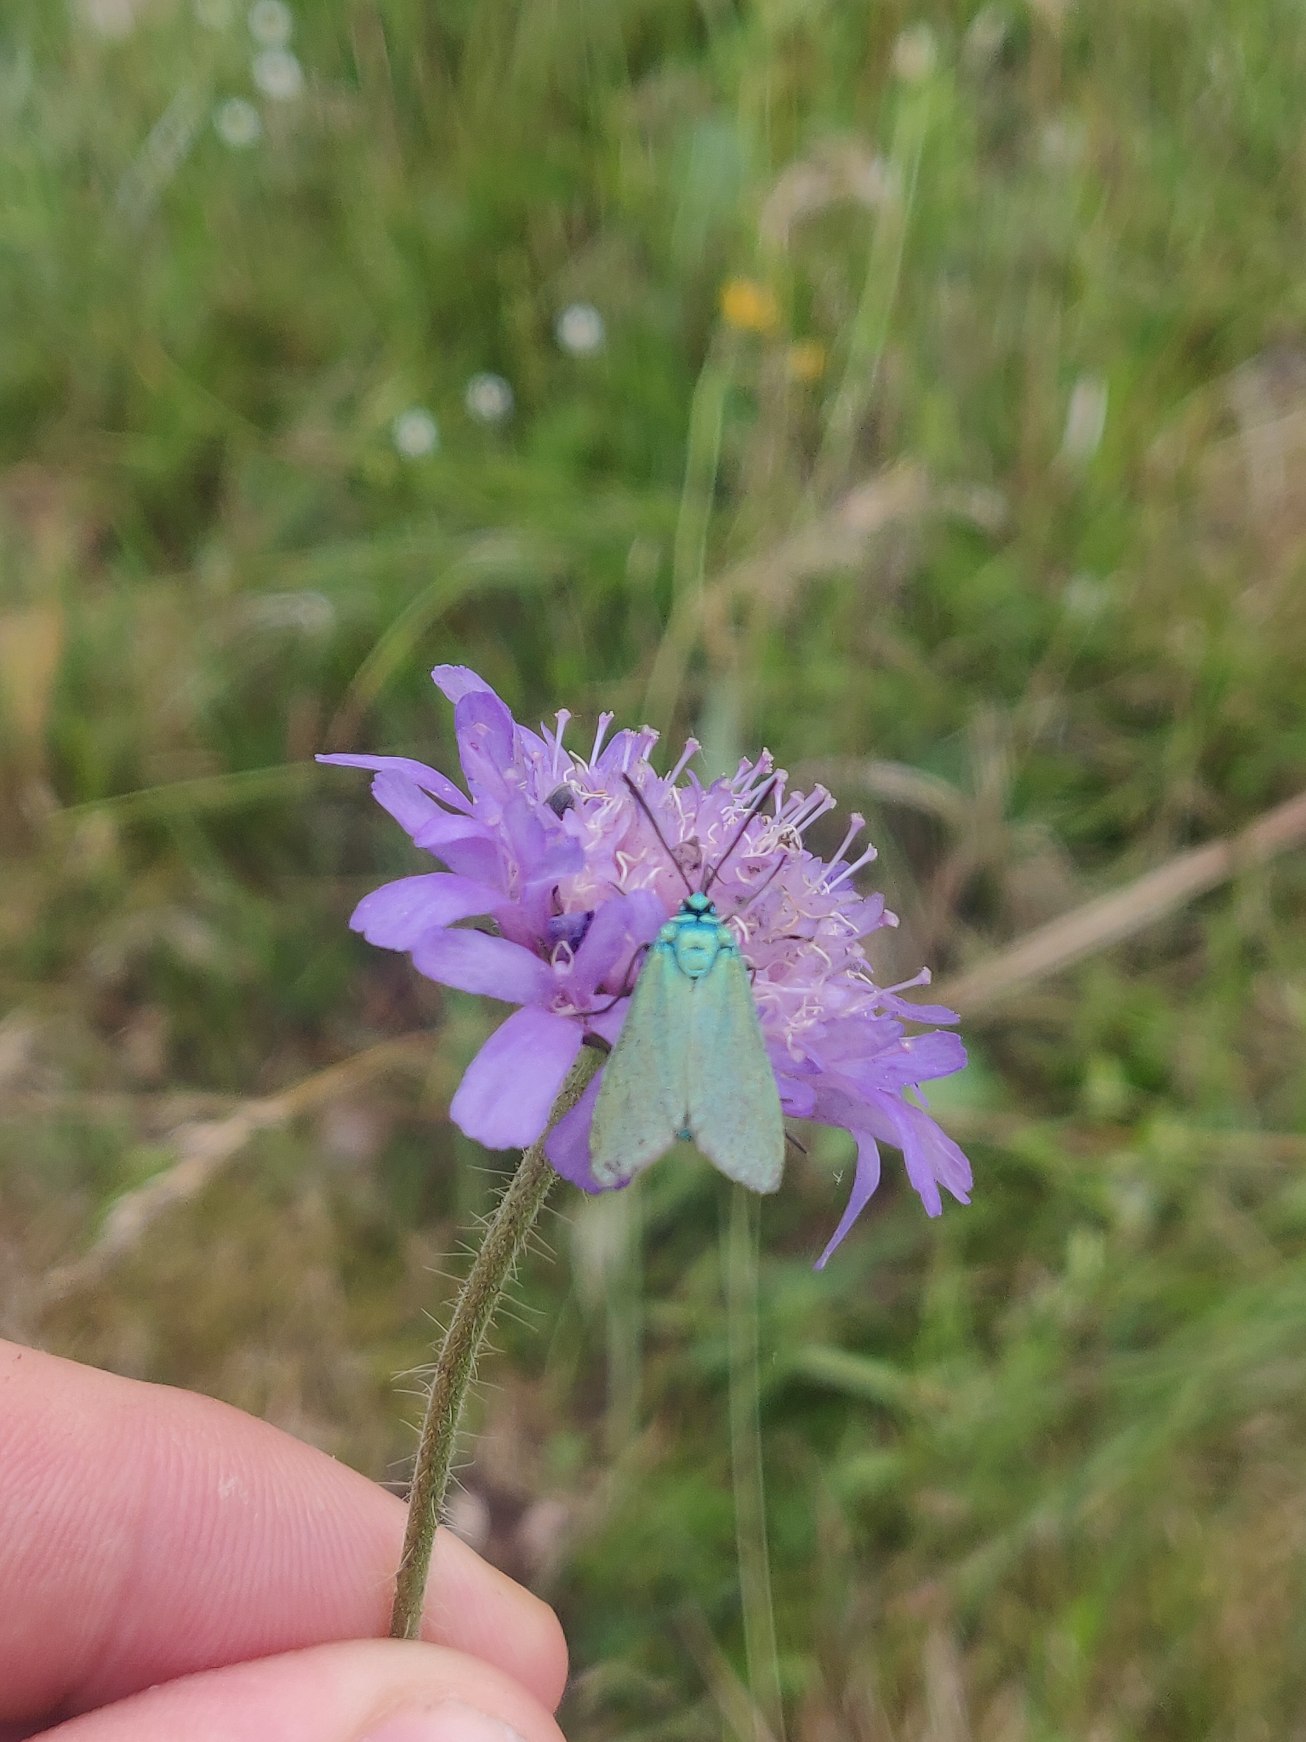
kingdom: Animalia
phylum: Arthropoda
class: Insecta
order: Lepidoptera
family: Zygaenidae
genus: Adscita
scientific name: Adscita statices
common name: Metalvinge
